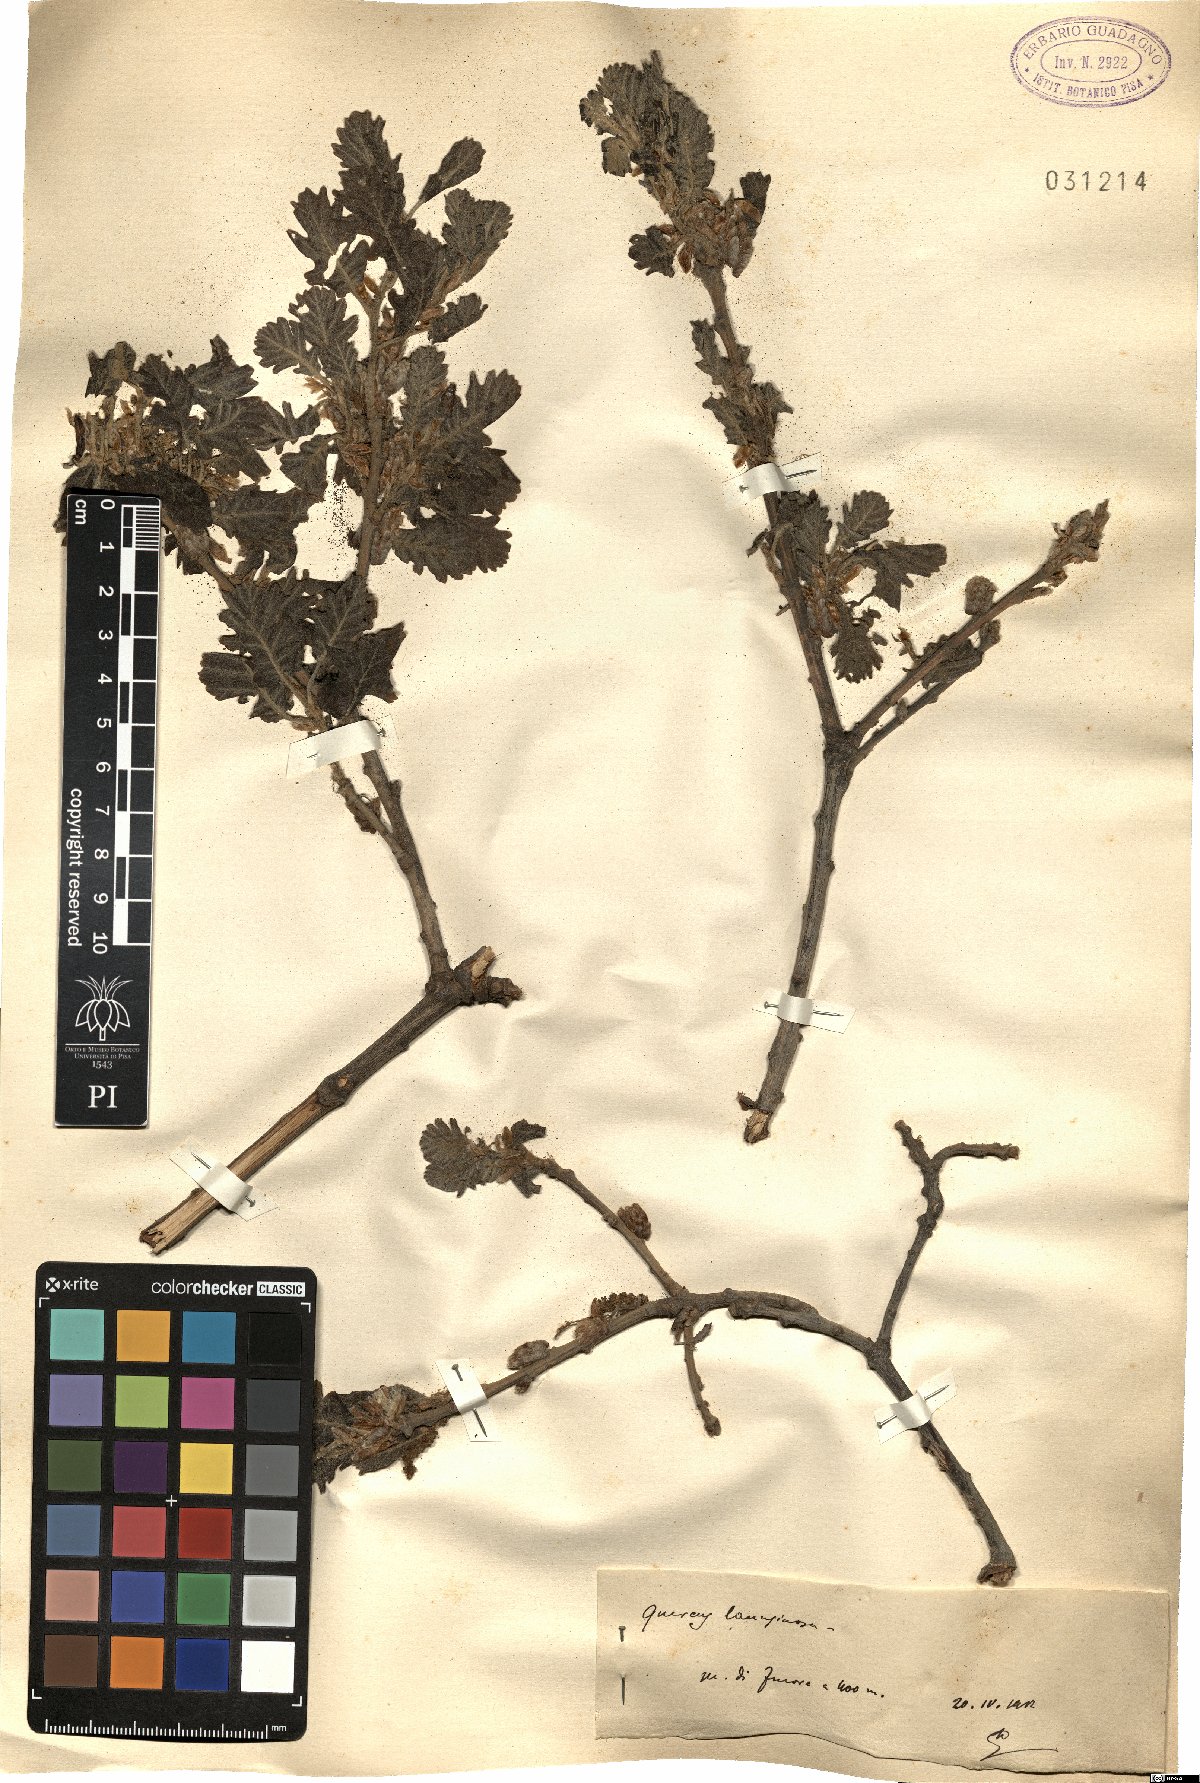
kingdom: Plantae
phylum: Tracheophyta
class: Magnoliopsida
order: Fagales
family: Fagaceae
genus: Quercus
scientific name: Quercus cerris
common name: Turkey oak
